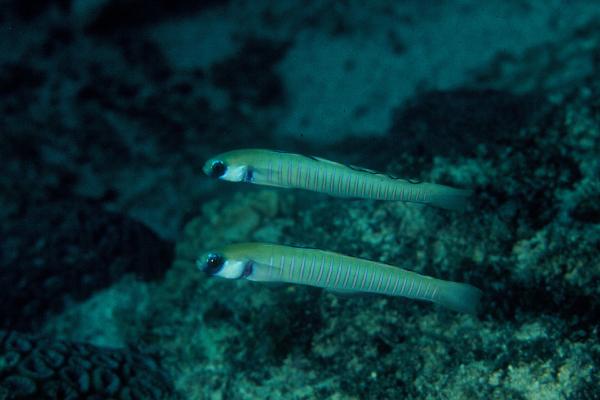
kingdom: Animalia
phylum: Chordata
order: Perciformes
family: Microdesmidae
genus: Ptereleotris
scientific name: Ptereleotris zebra
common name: Chinese zebra goby
